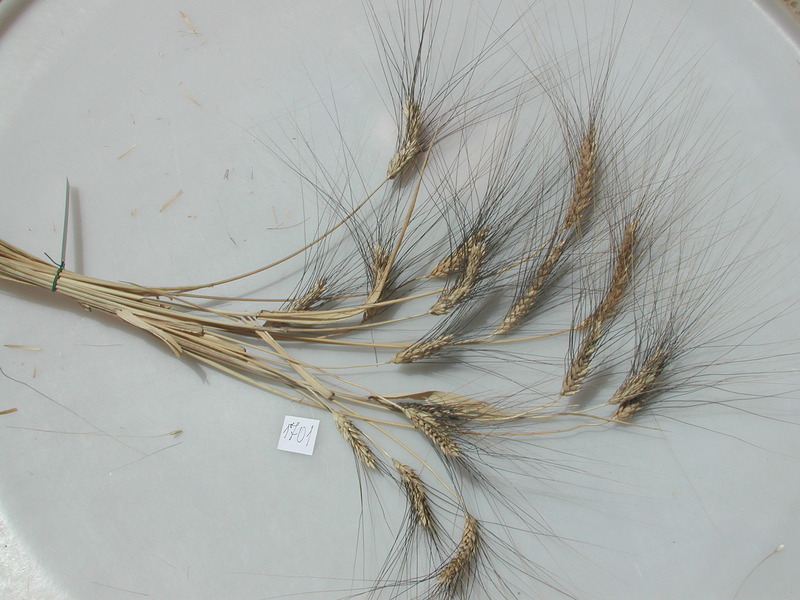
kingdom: Plantae
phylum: Tracheophyta
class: Liliopsida
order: Poales
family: Poaceae
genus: Triticum
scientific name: Triticum turgidum
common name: Wheat
